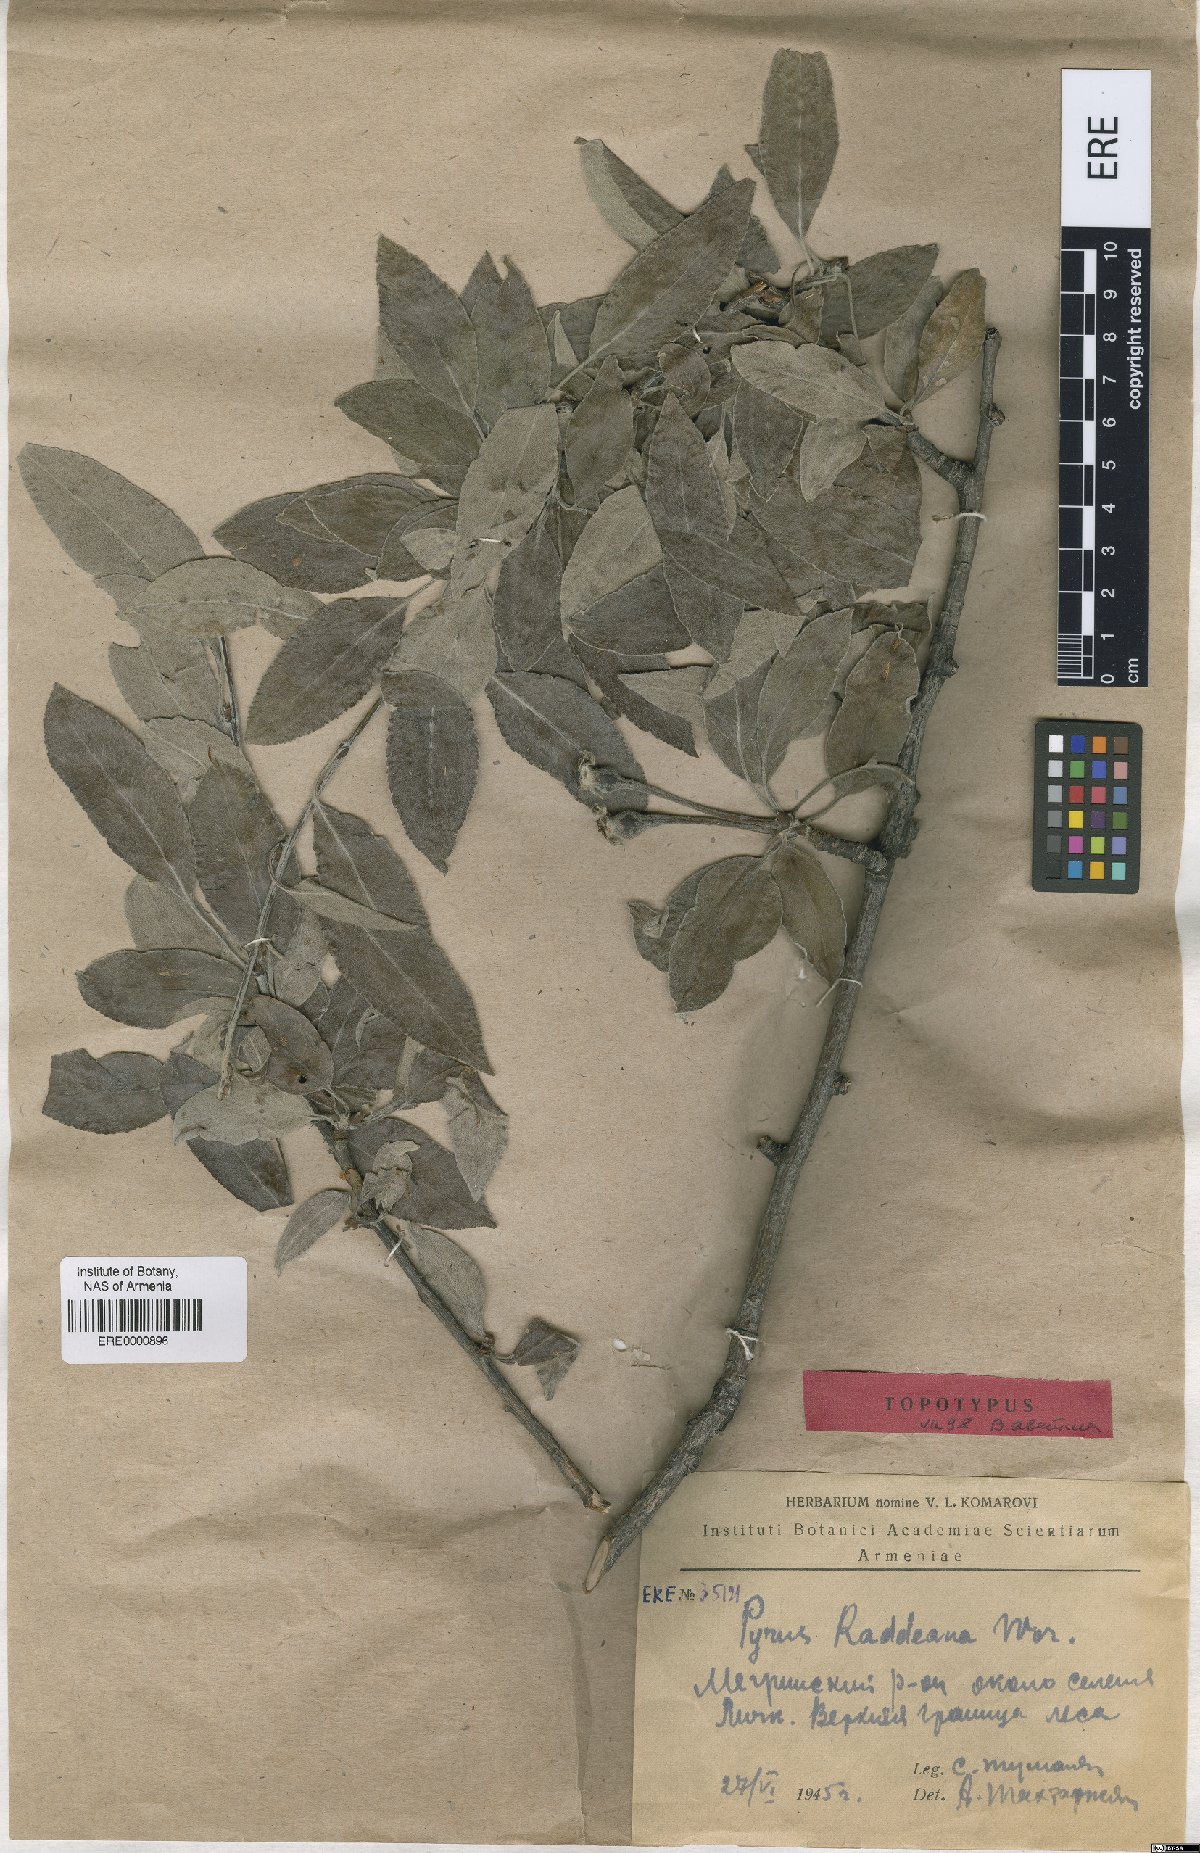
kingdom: Plantae
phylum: Tracheophyta
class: Magnoliopsida
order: Rosales
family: Rosaceae
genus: Pyrus
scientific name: Pyrus raddeana
